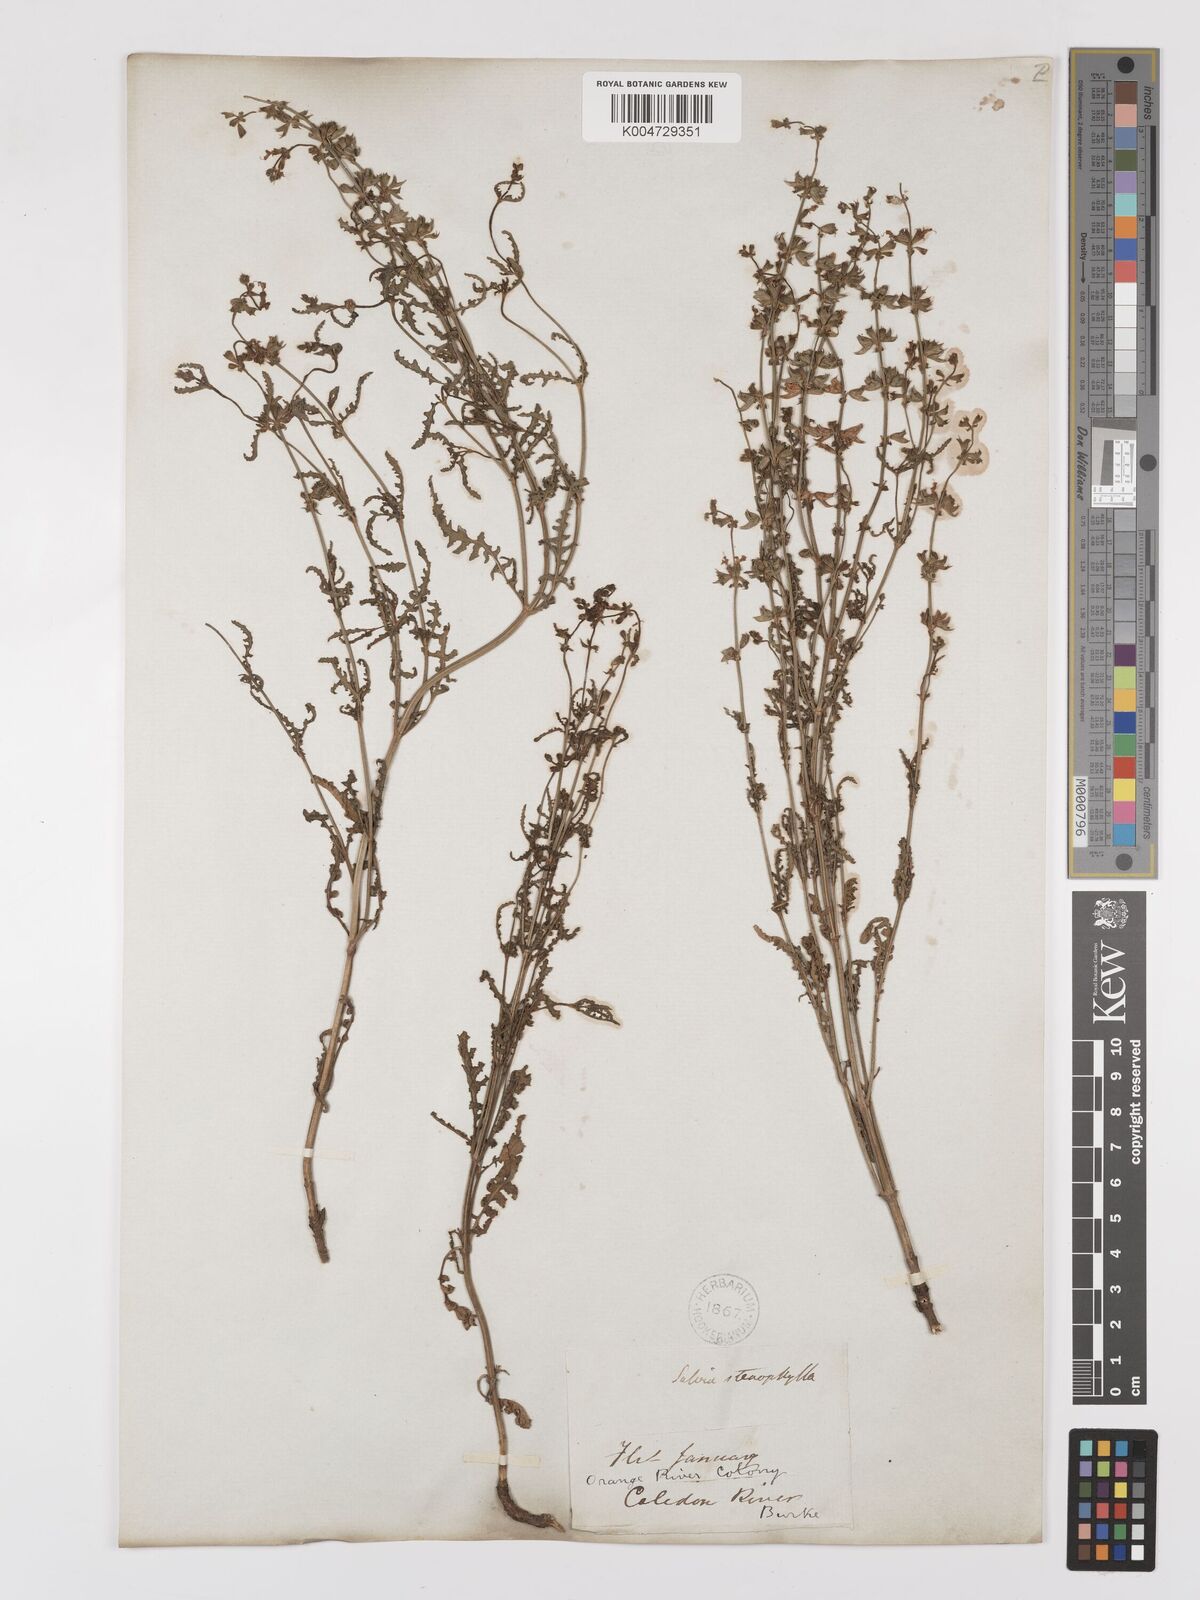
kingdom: Plantae
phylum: Tracheophyta
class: Magnoliopsida
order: Lamiales
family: Lamiaceae
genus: Salvia
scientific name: Salvia stenophylla
